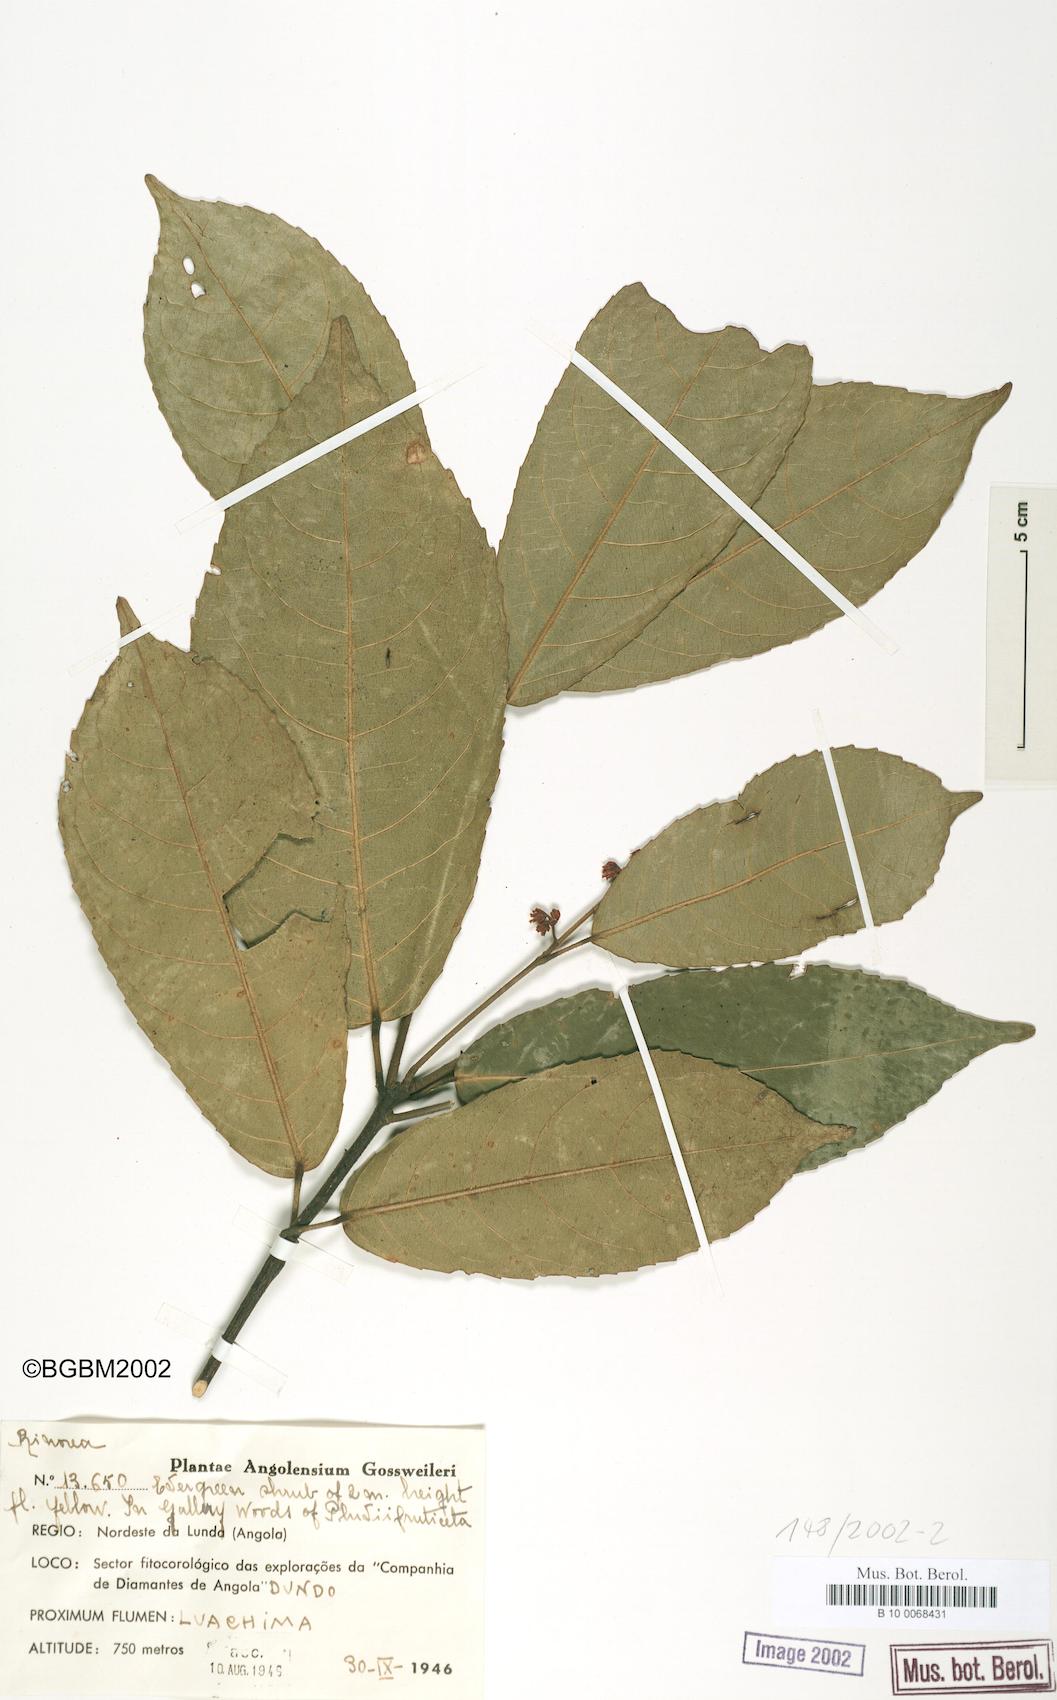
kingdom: Plantae
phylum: Tracheophyta
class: Magnoliopsida
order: Malpighiales
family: Violaceae
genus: Rinorea
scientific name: Rinorea
